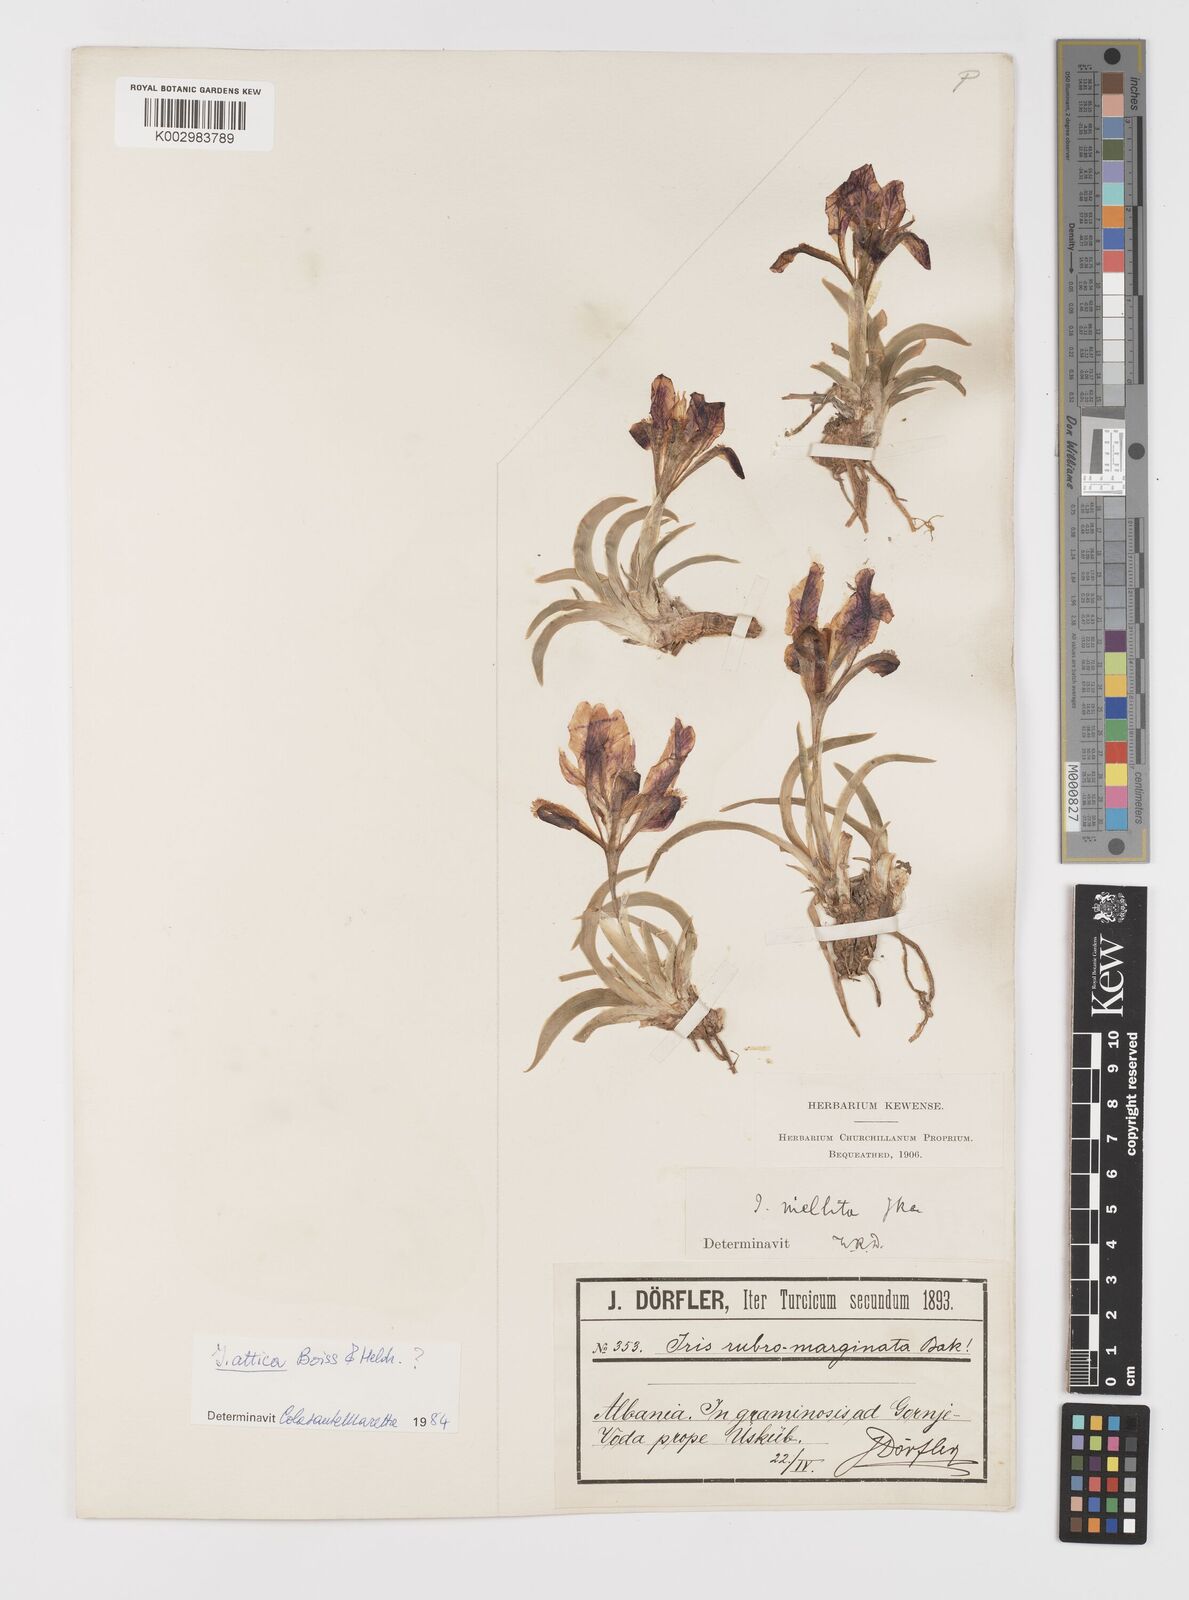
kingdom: Plantae
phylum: Tracheophyta
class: Liliopsida
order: Asparagales
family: Iridaceae
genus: Iris
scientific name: Iris suaveolens
